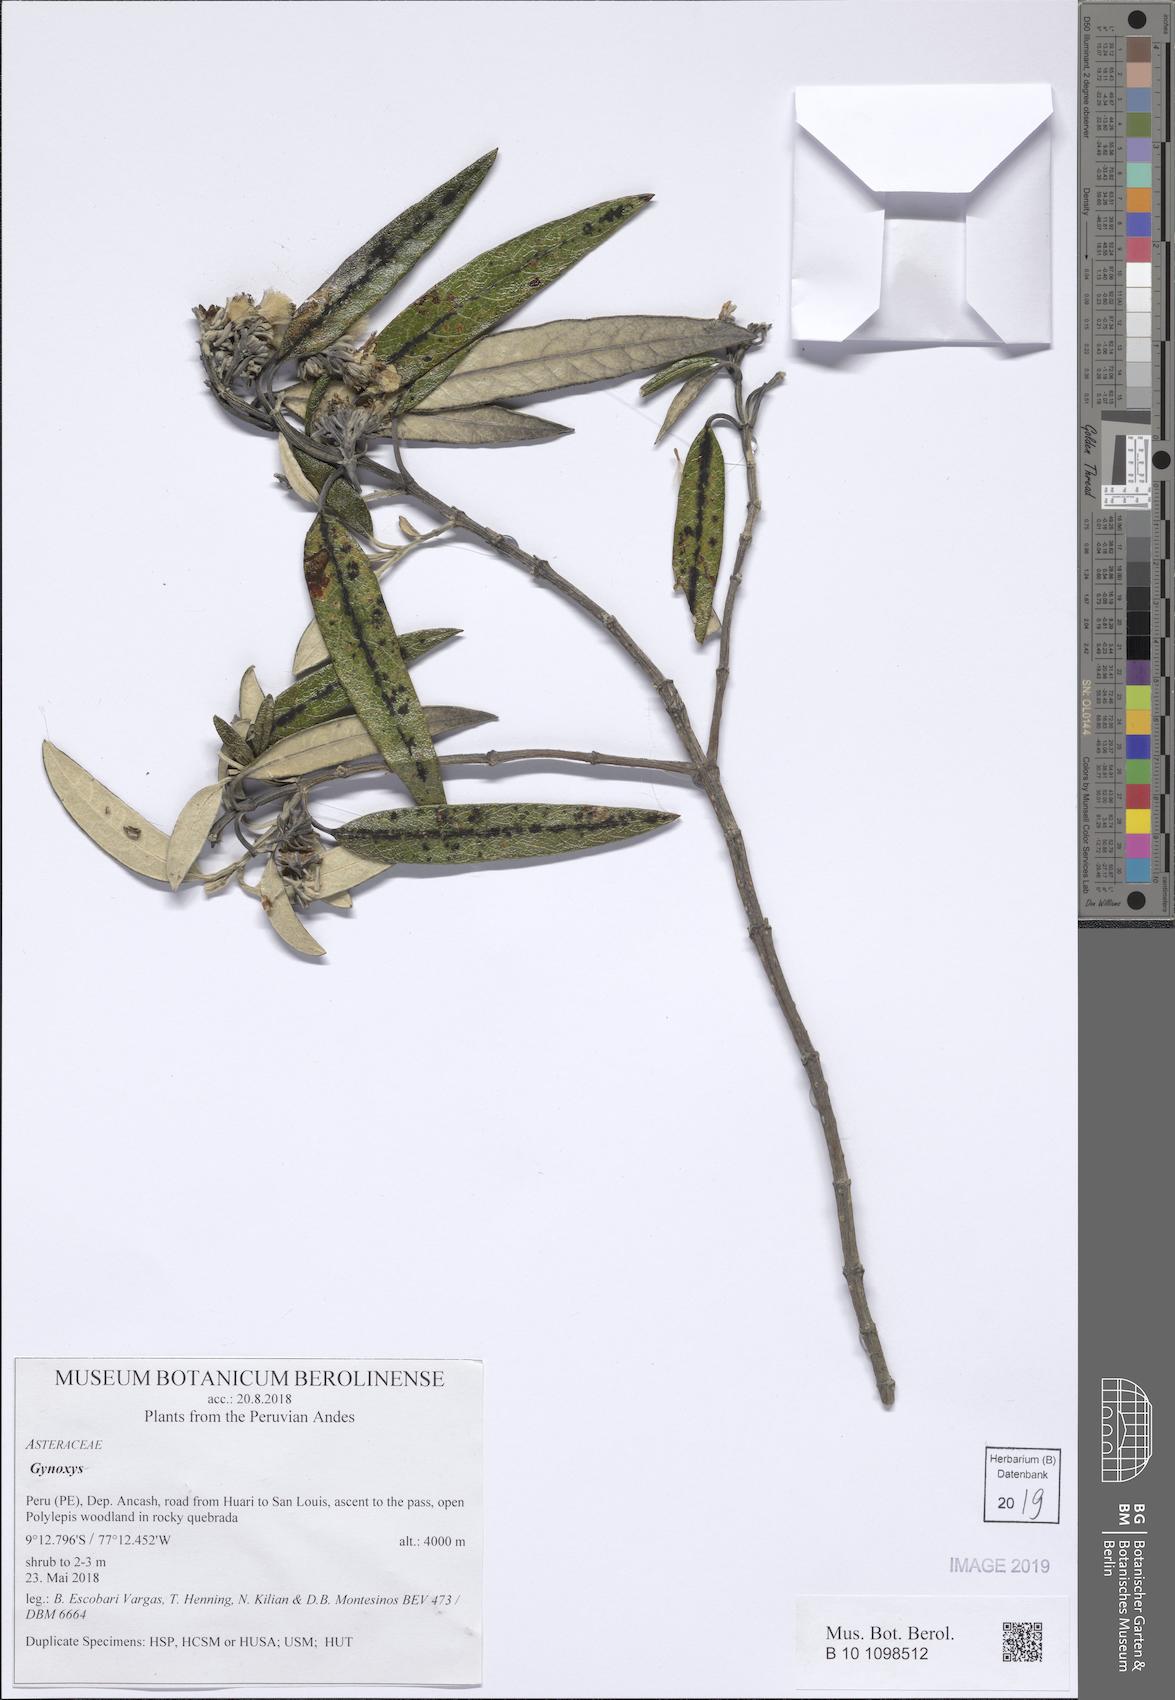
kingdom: Plantae
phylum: Tracheophyta
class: Magnoliopsida
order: Asterales
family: Asteraceae
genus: Gynoxys
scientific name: Gynoxys
